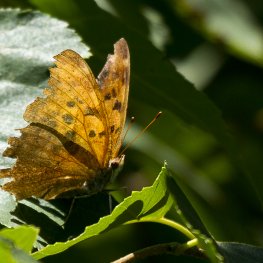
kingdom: Animalia
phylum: Arthropoda
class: Insecta
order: Lepidoptera
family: Nymphalidae
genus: Polygonia
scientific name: Polygonia interrogationis
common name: Question Mark
